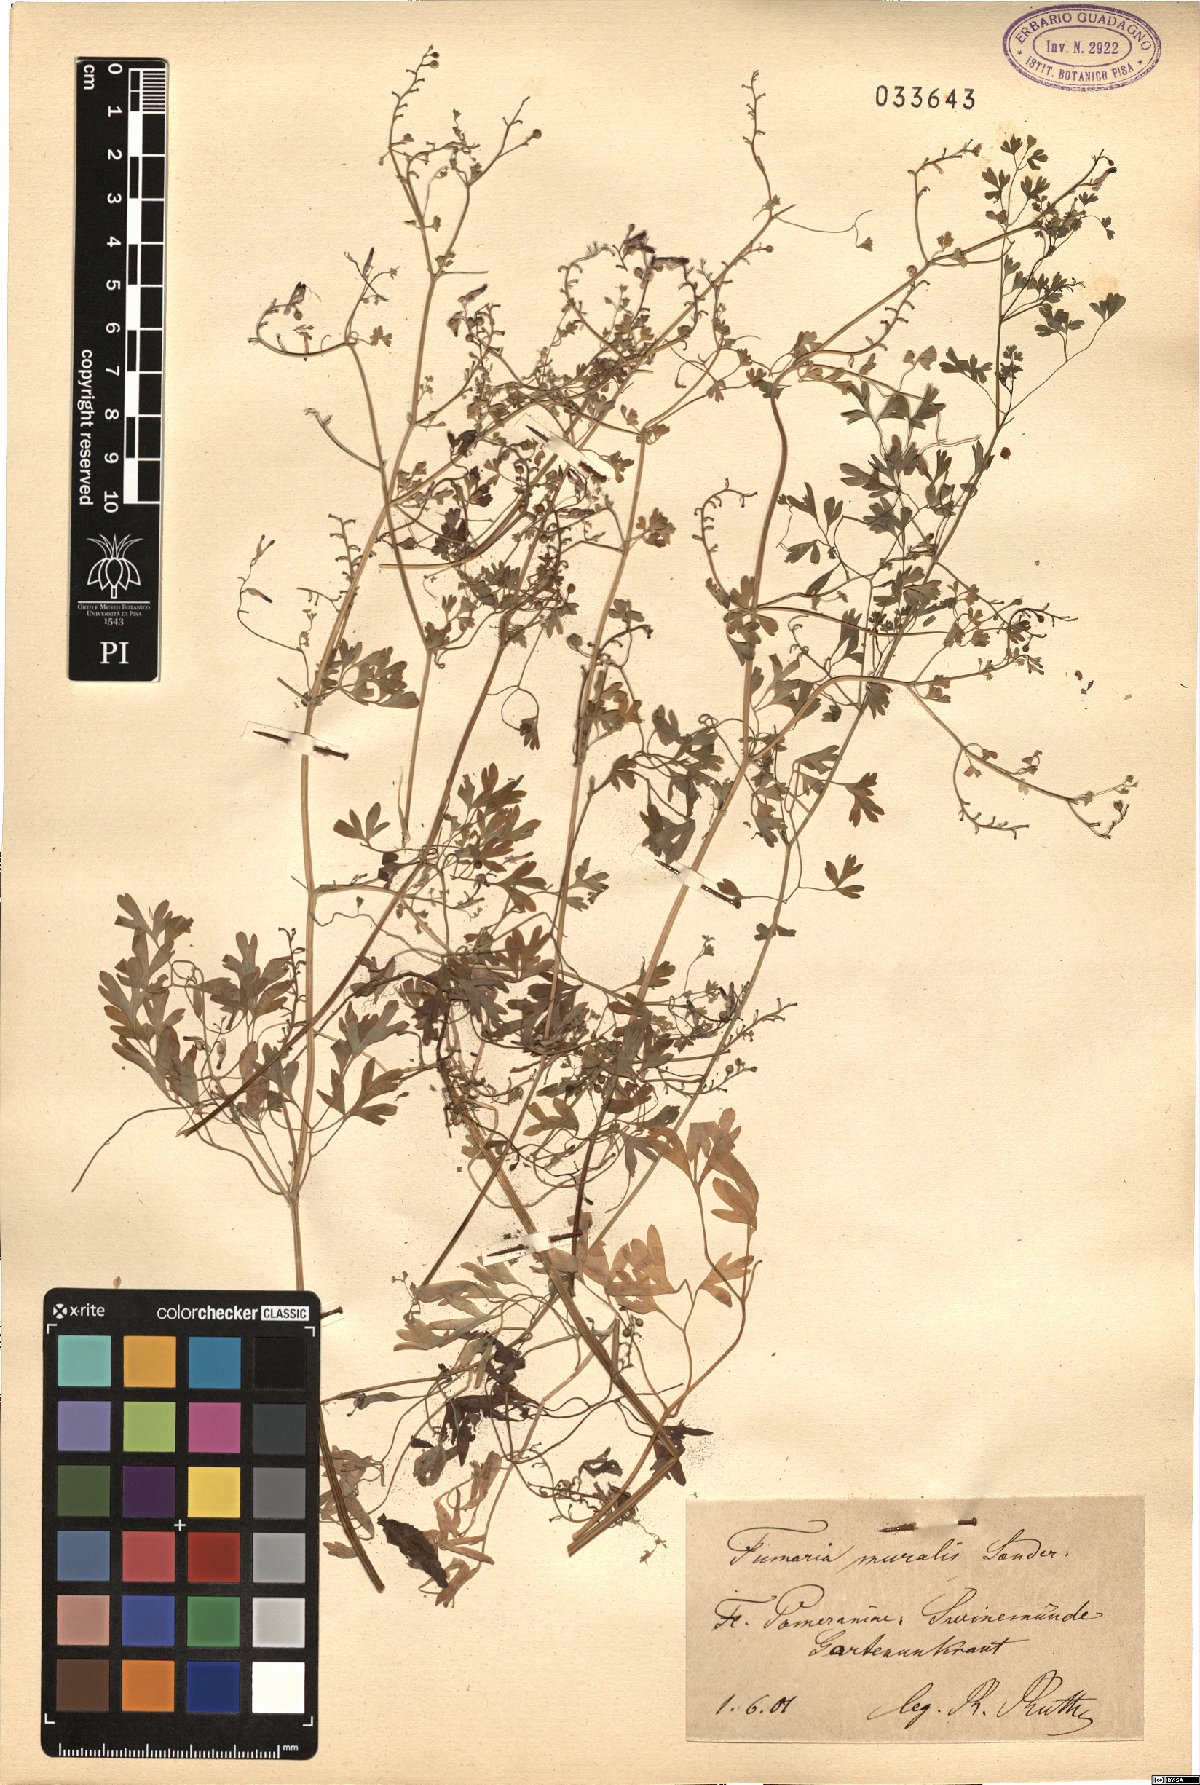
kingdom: Plantae
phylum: Tracheophyta
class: Magnoliopsida
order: Ranunculales
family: Papaveraceae
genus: Fumaria
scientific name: Fumaria muralis
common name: Common ramping-fumitory
